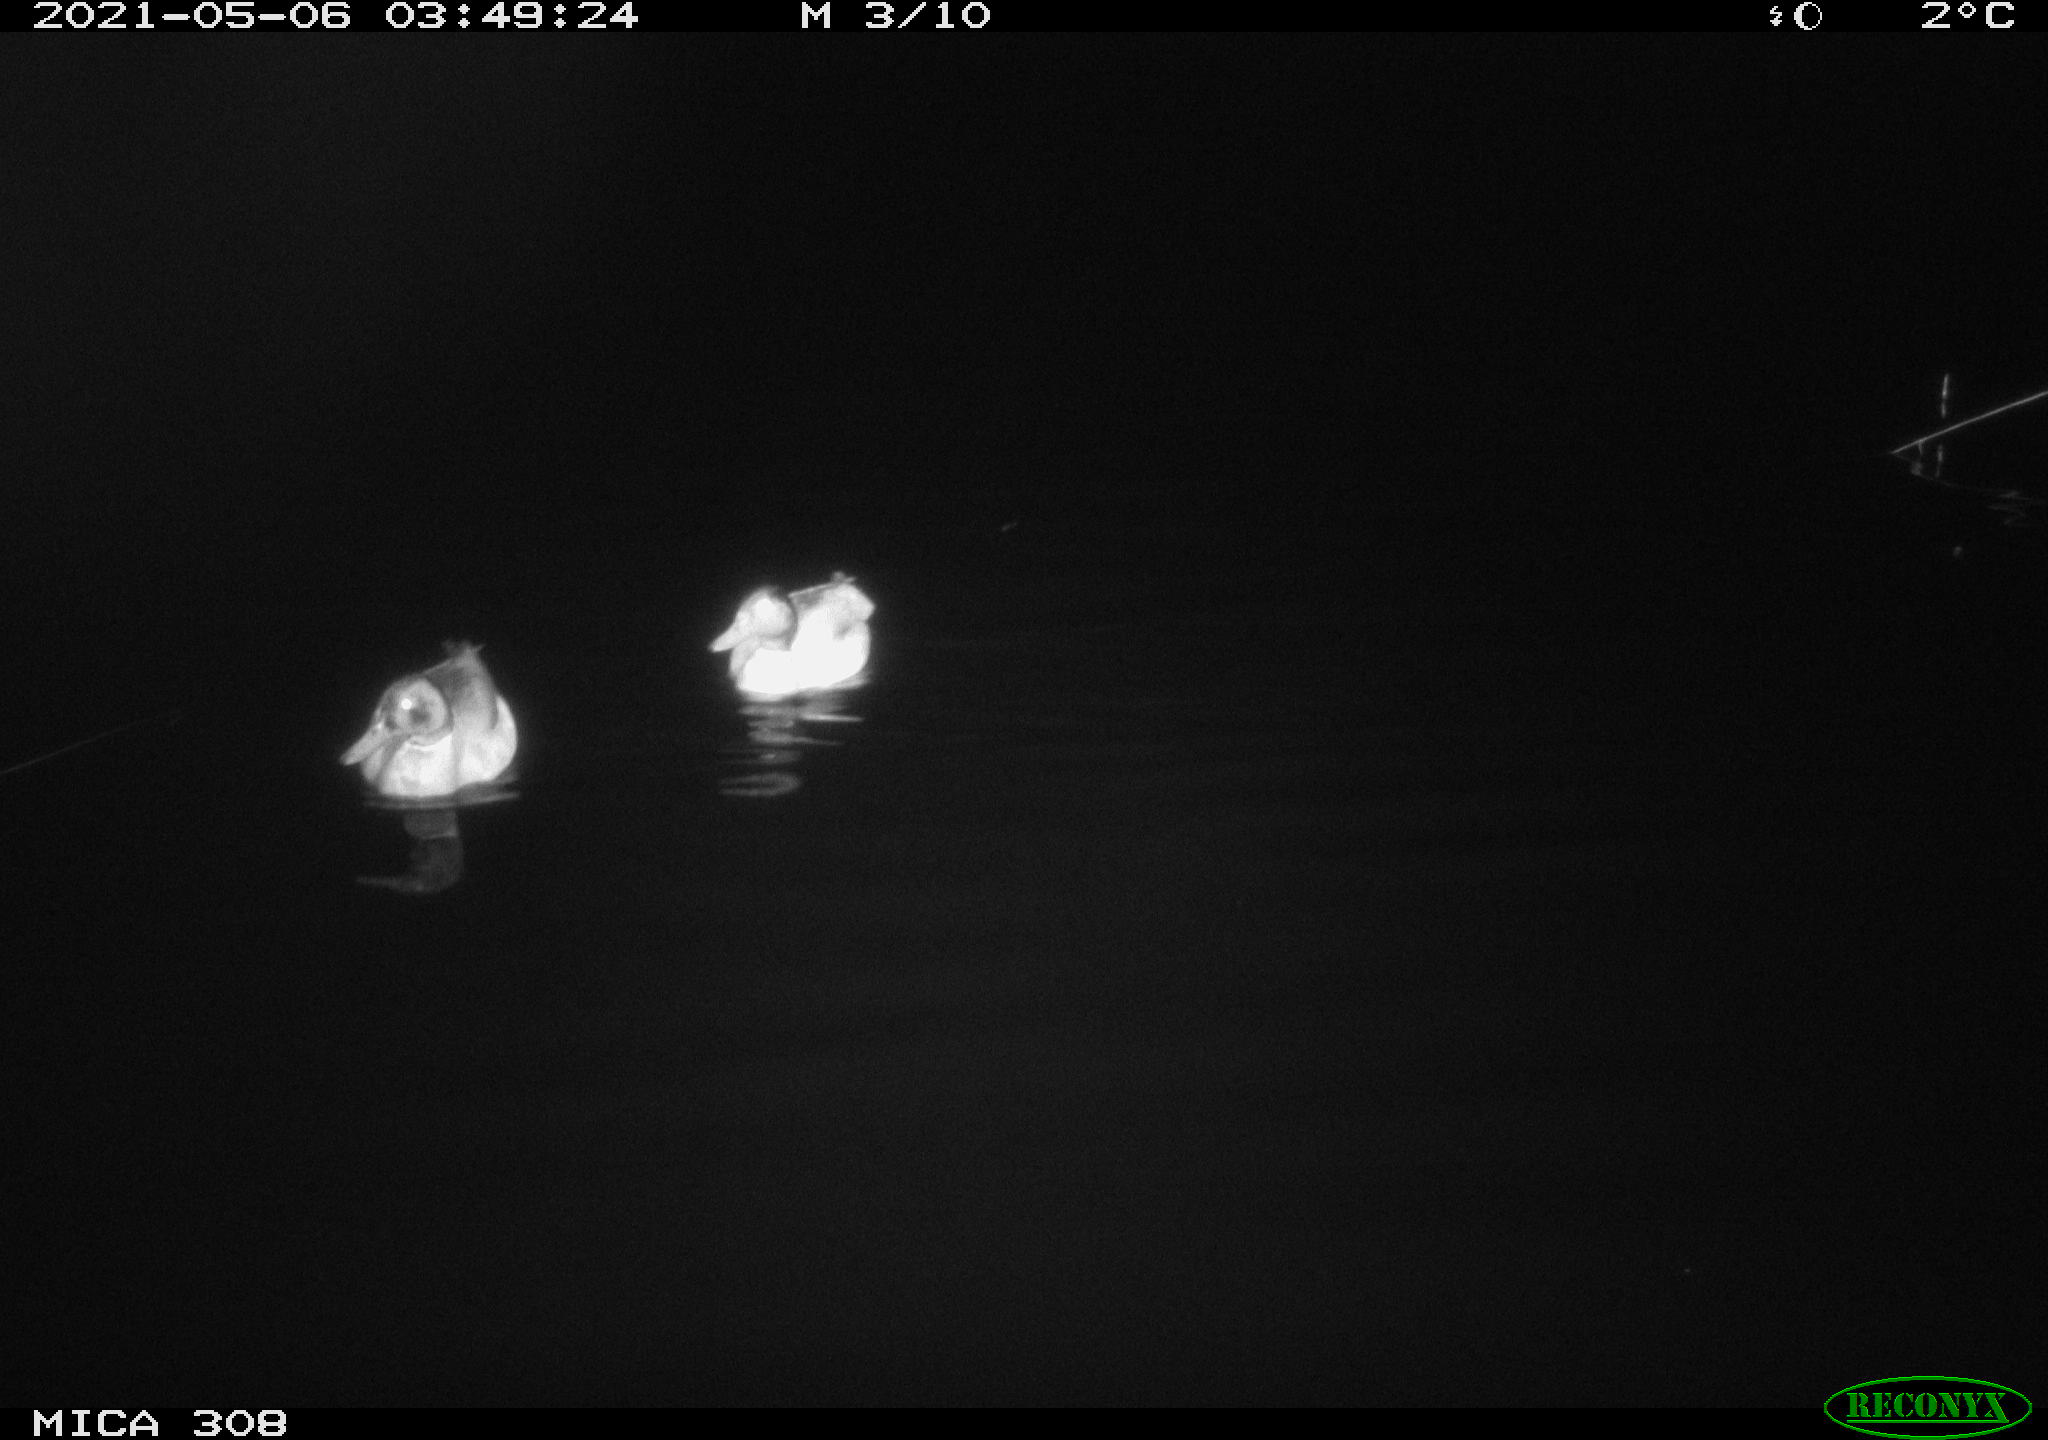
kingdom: Animalia
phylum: Chordata
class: Aves
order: Anseriformes
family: Anatidae
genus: Anas
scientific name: Anas platyrhynchos
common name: Mallard
